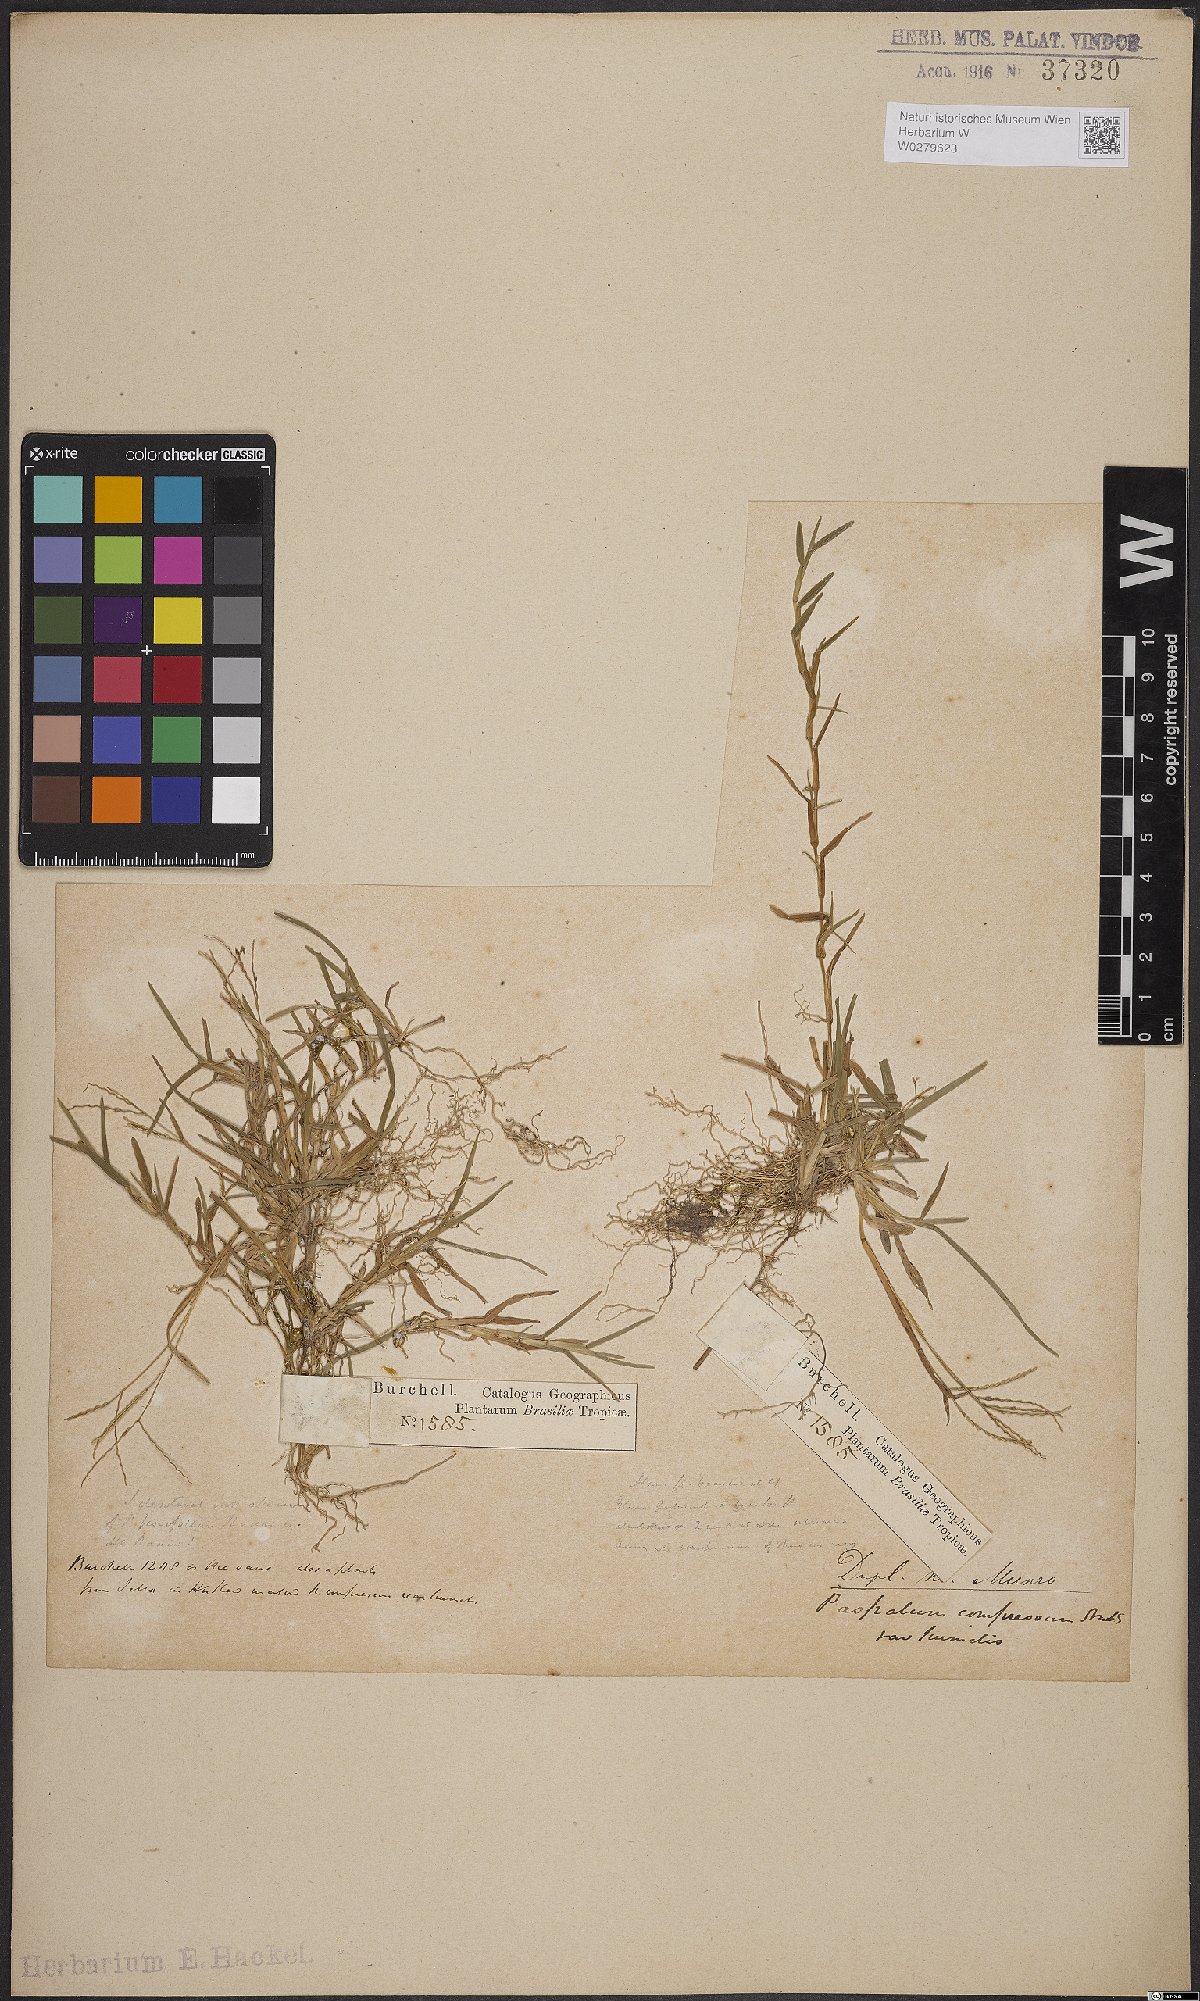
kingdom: Plantae
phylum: Tracheophyta
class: Liliopsida
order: Poales
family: Poaceae
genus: Axonopus
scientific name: Axonopus compressus
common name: American carpet grass
